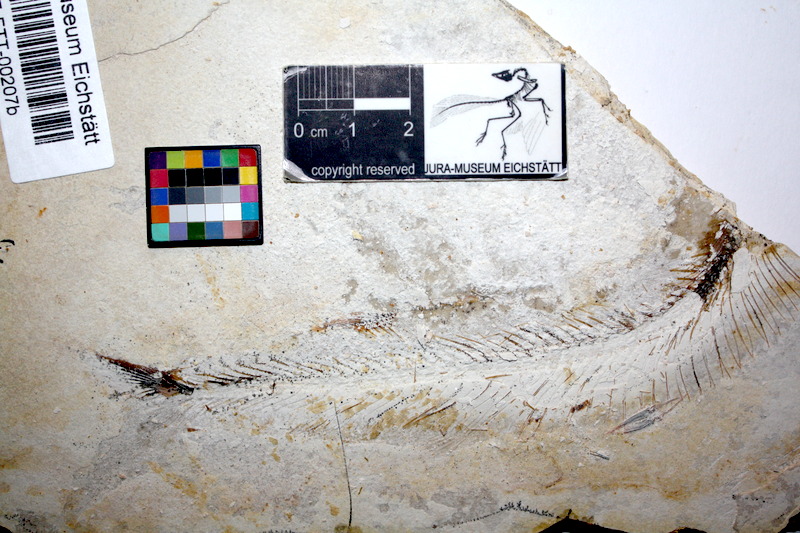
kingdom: Animalia
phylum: Chordata
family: Allothrissopidae
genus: Allothrissops
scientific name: Allothrissops mesogaster
